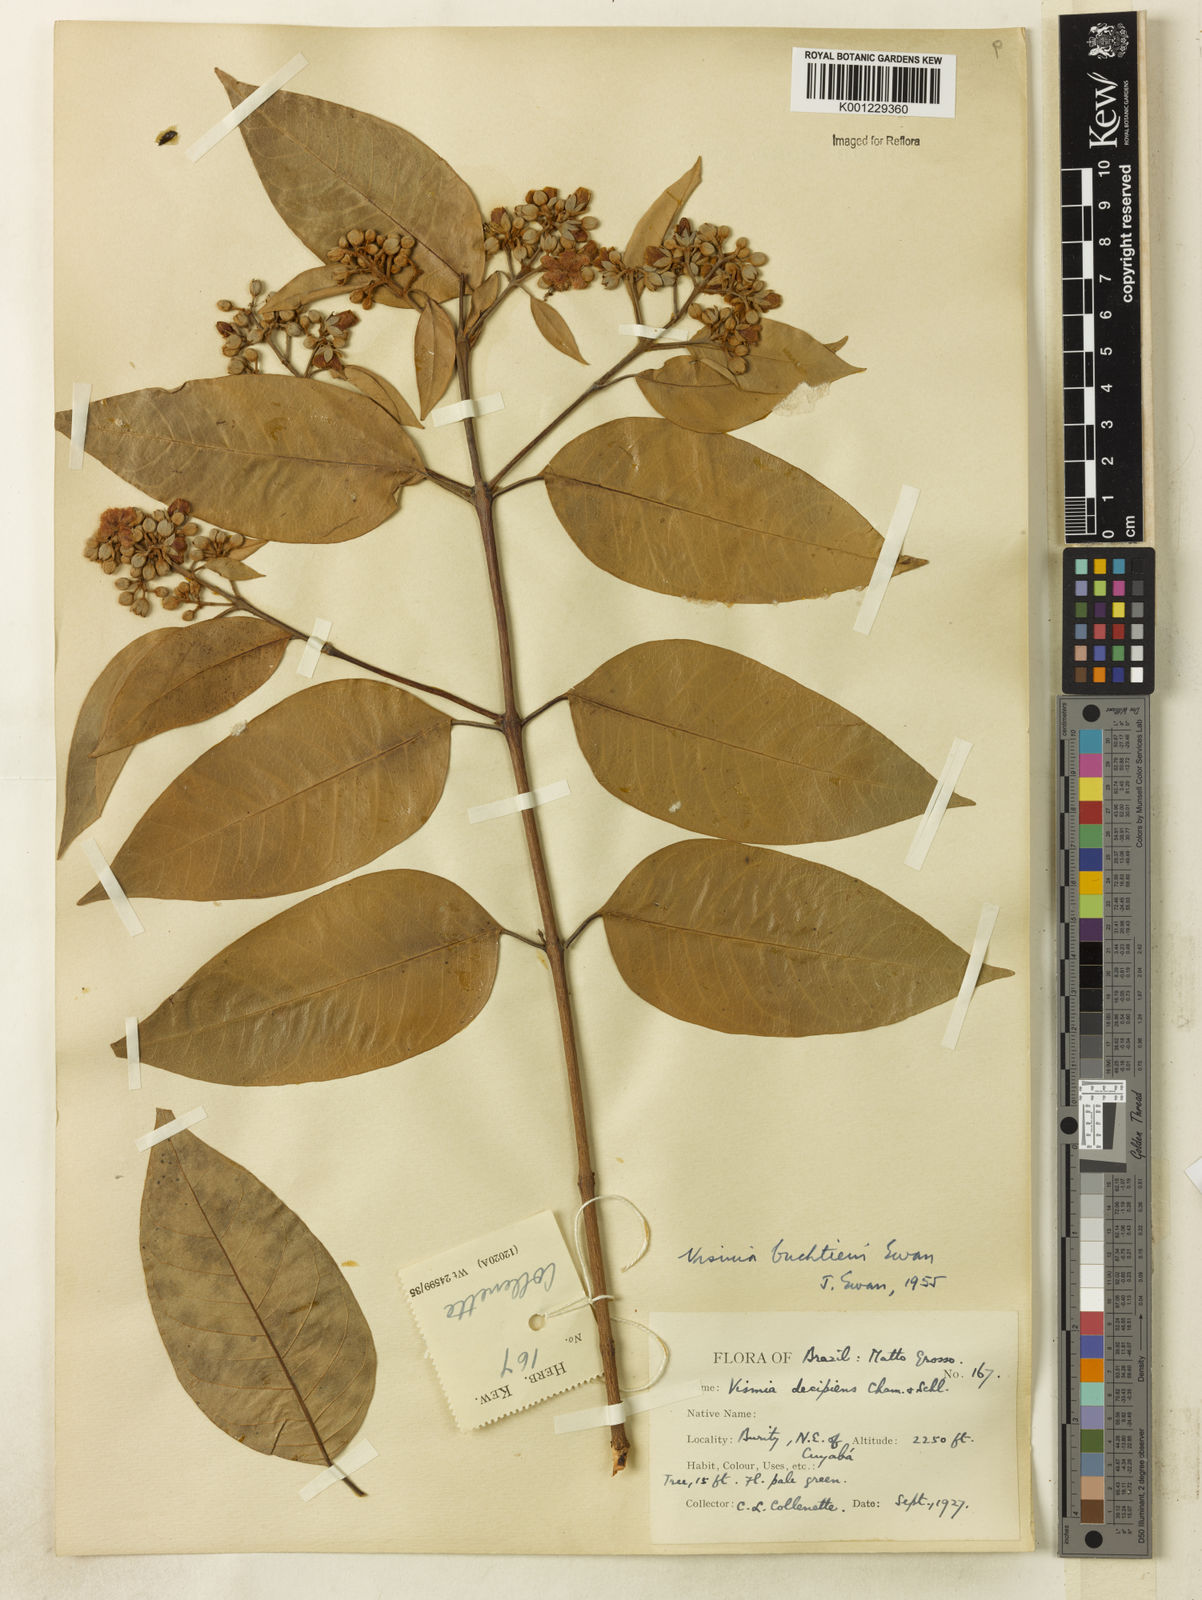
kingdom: Plantae
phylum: Tracheophyta
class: Magnoliopsida
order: Malpighiales
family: Hypericaceae
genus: Vismia
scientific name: Vismia gracilis
